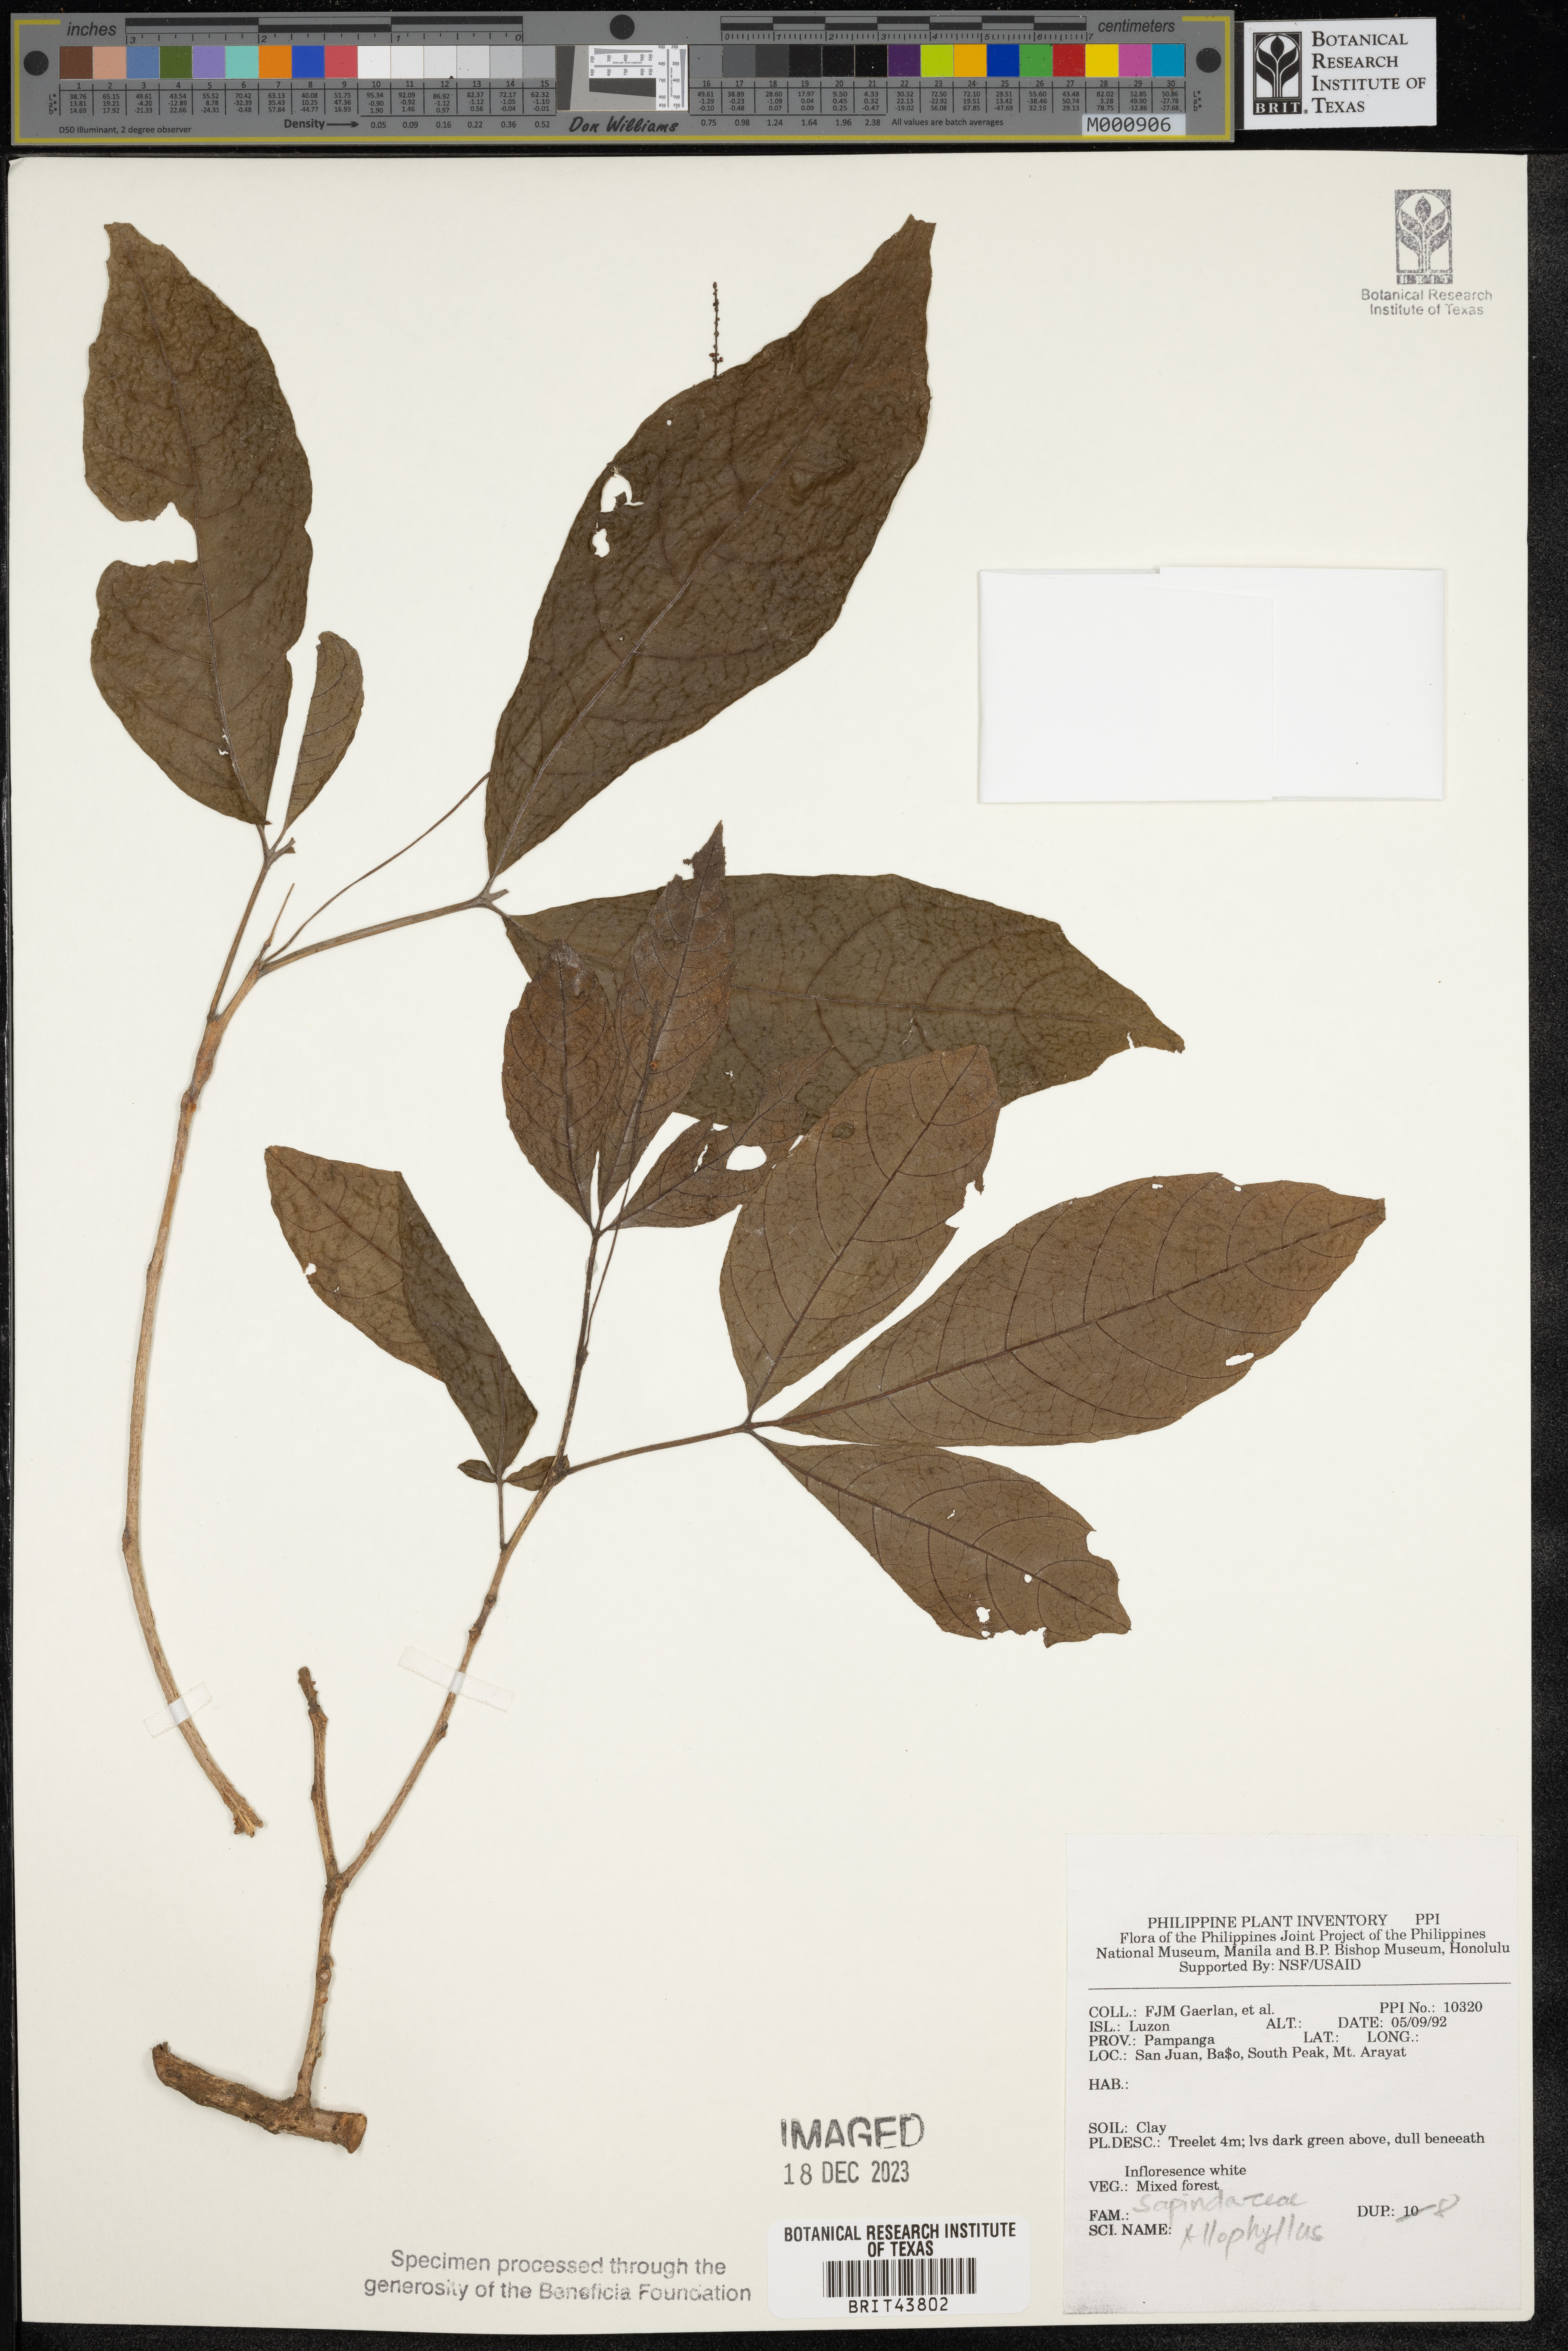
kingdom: Plantae
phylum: Tracheophyta
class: Magnoliopsida
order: Sapindales
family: Sapindaceae
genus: Allophylus
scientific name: Allophylus
